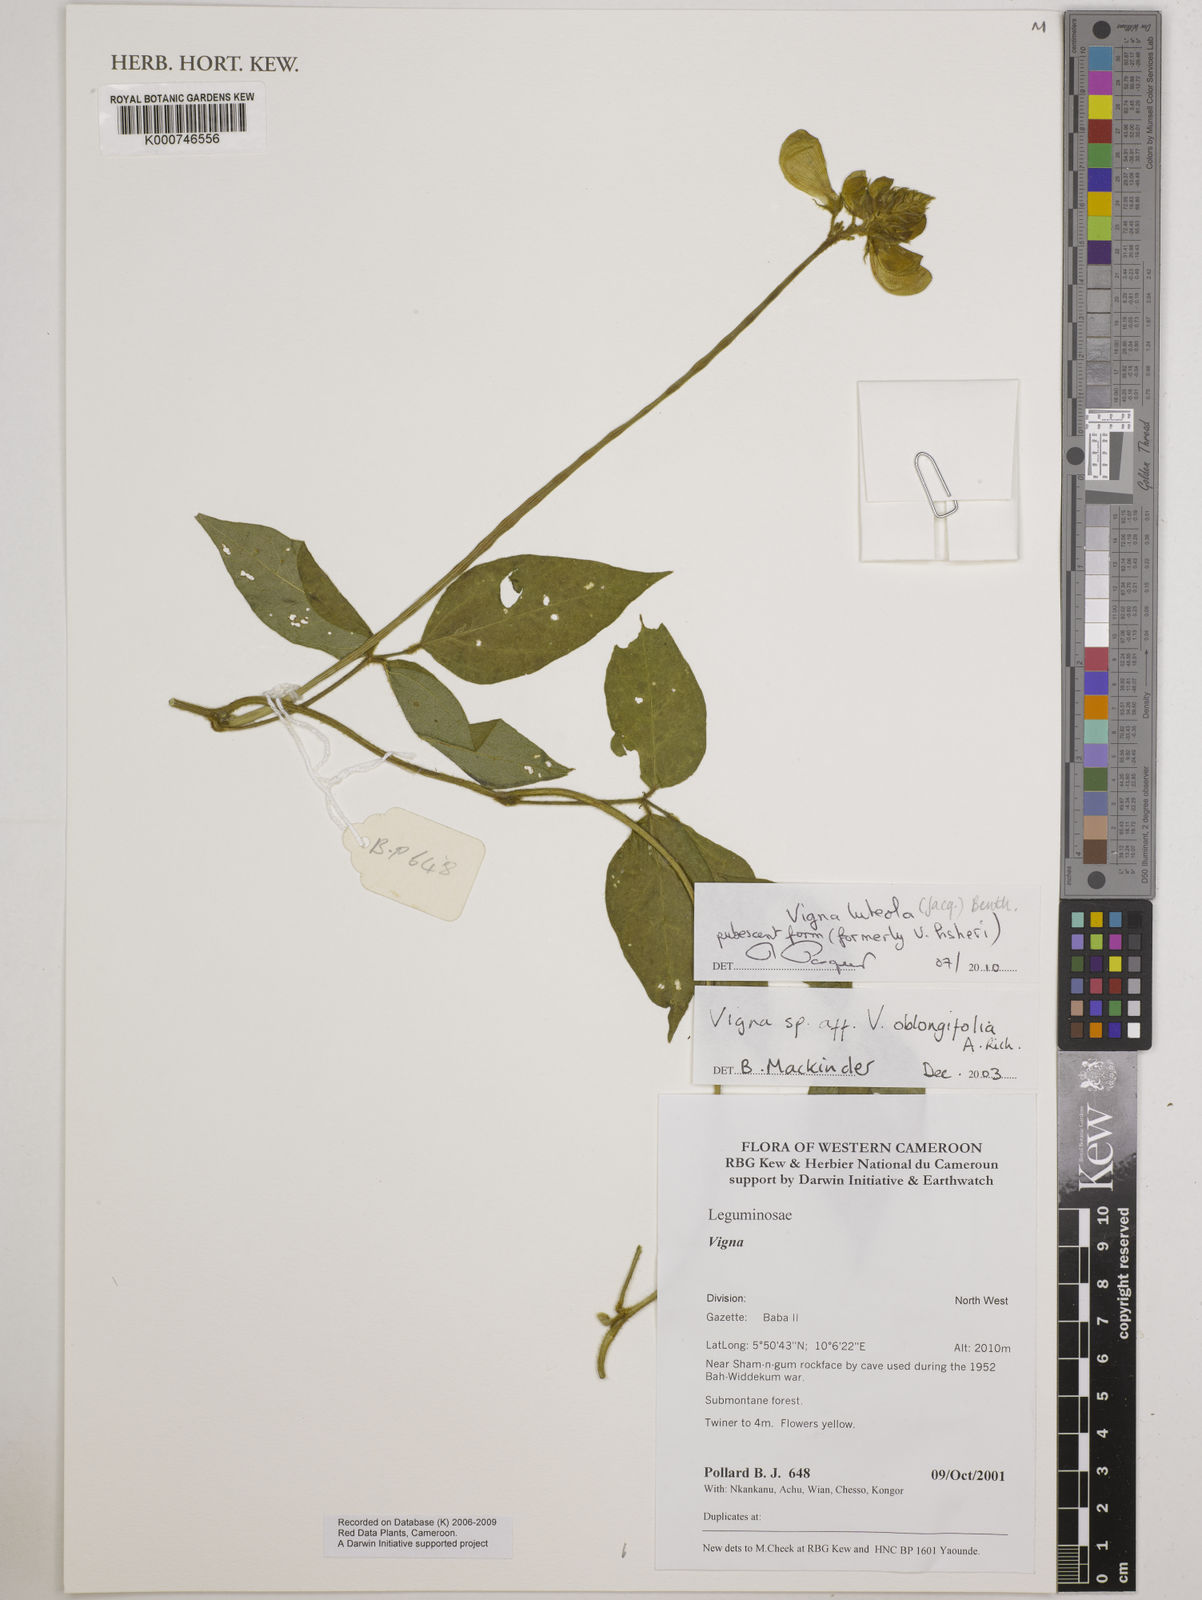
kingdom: Plantae
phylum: Tracheophyta
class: Magnoliopsida
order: Fabales
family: Fabaceae
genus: Vigna
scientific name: Vigna luteola
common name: Hairypod cowpea
